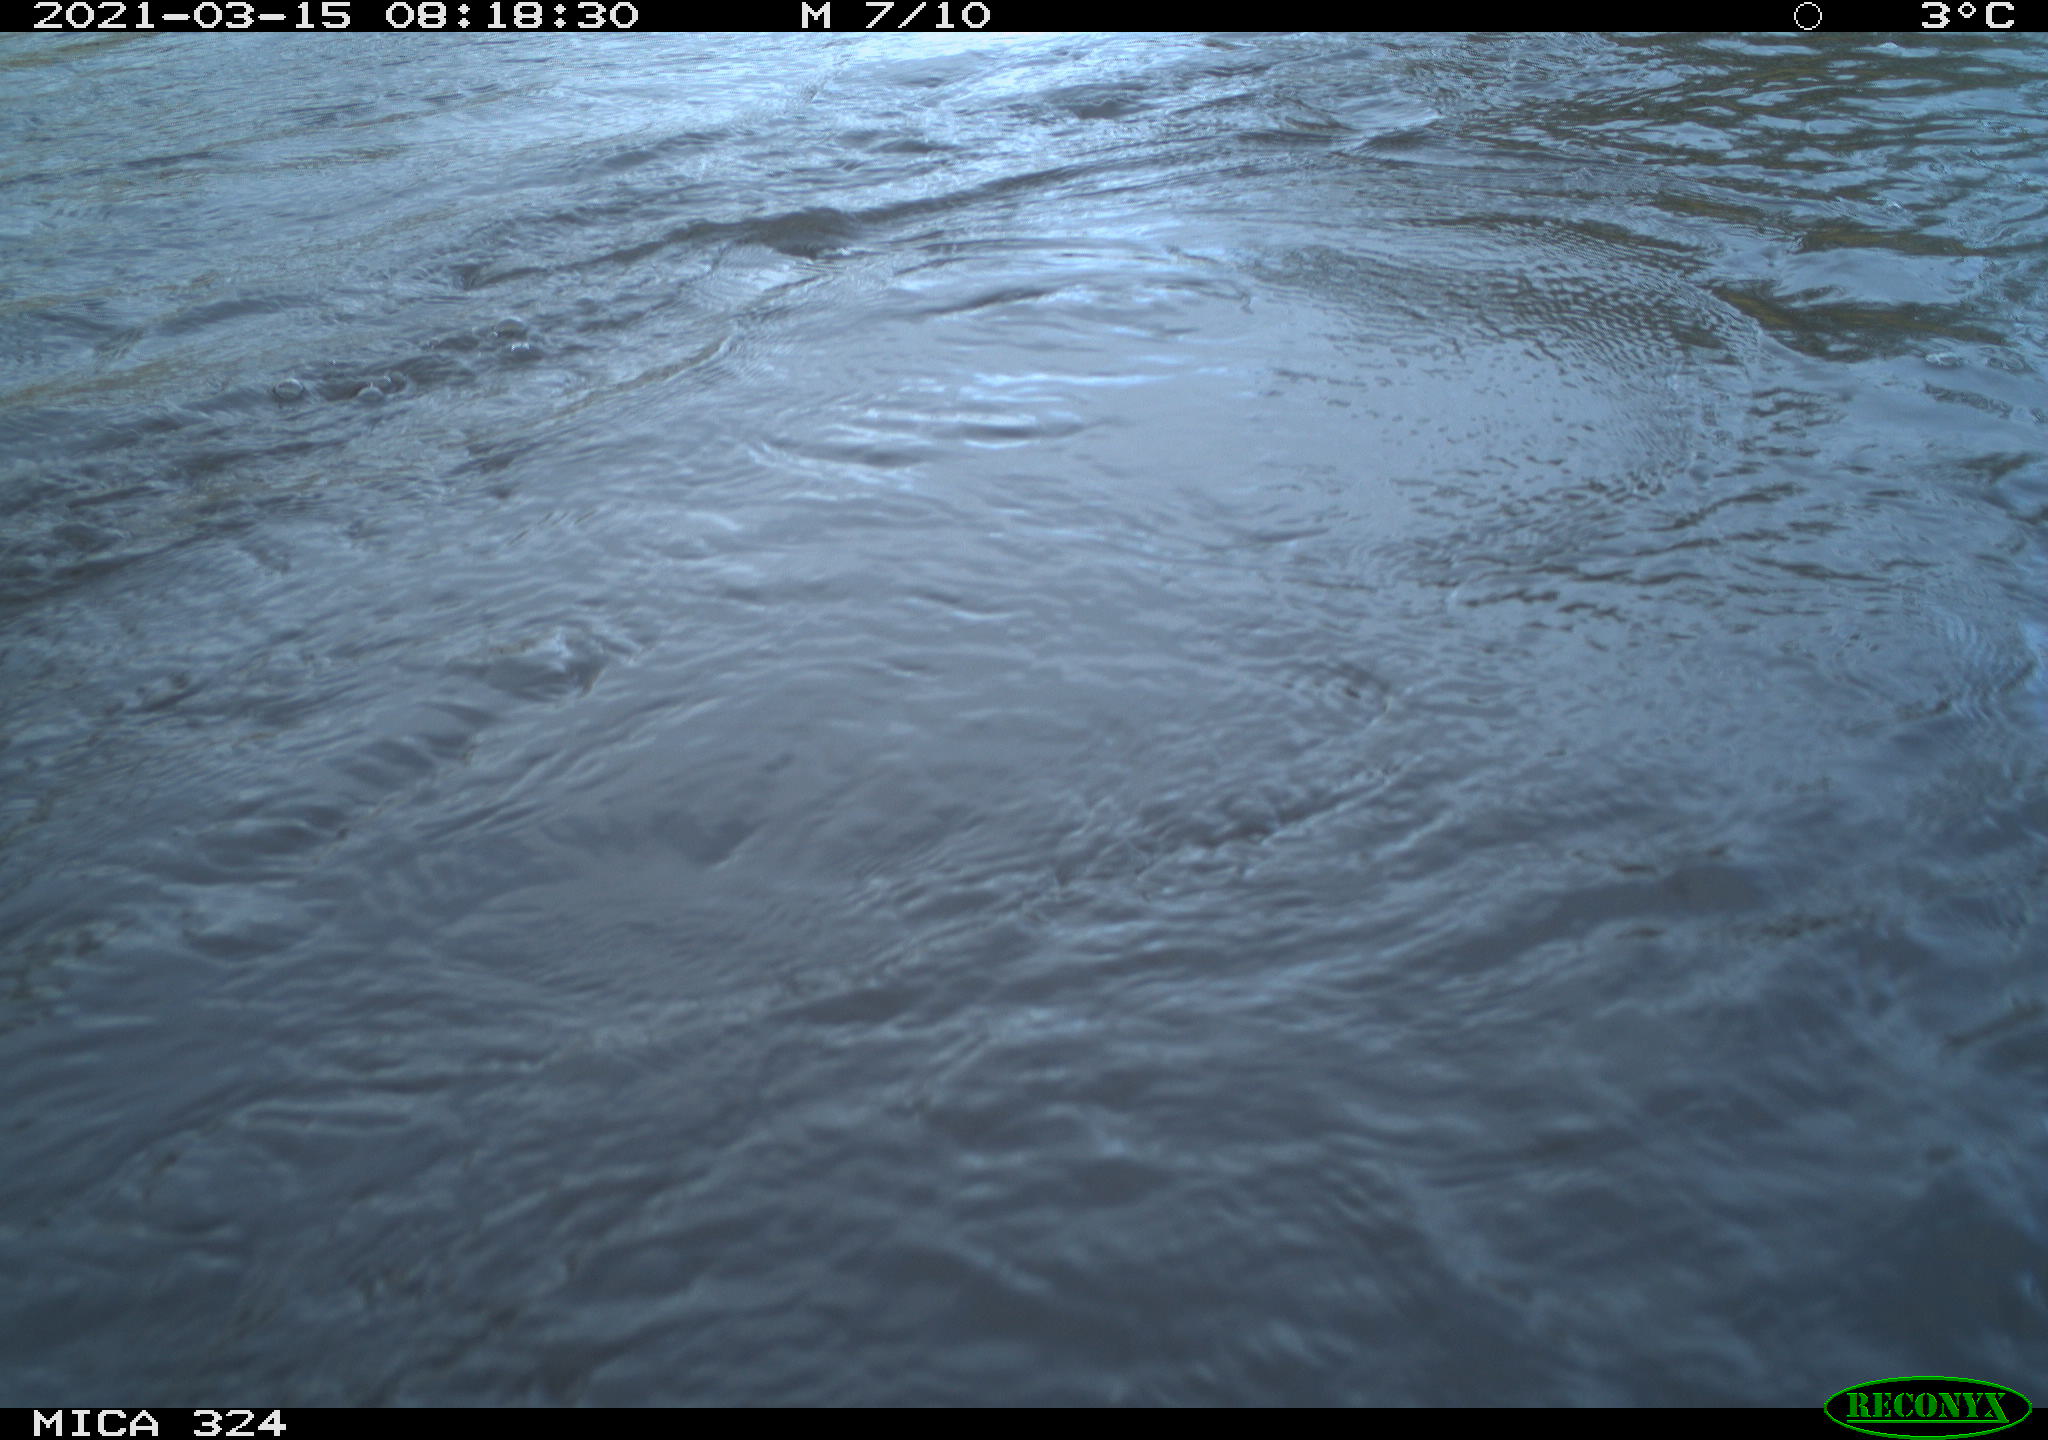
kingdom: Animalia
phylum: Chordata
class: Aves
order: Anseriformes
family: Anatidae
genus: Anas
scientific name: Anas platyrhynchos
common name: Mallard
